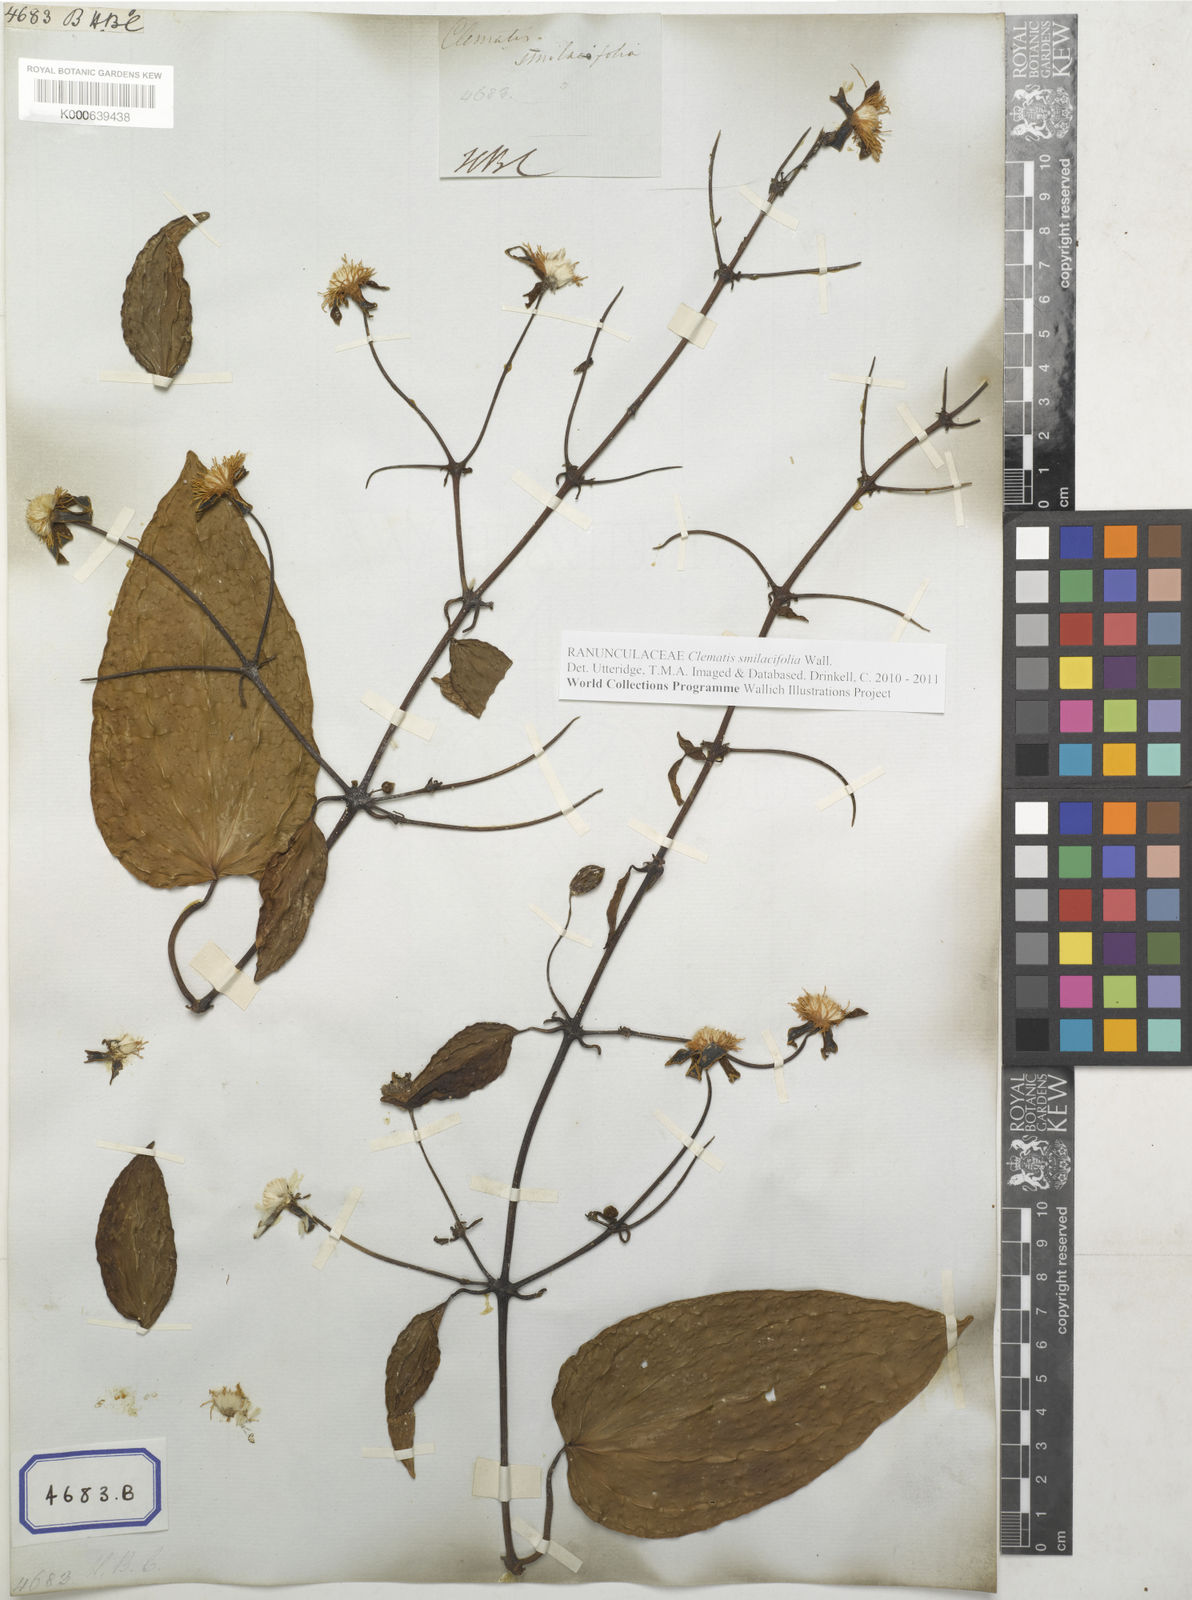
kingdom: Plantae
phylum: Tracheophyta
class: Magnoliopsida
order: Ranunculales
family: Ranunculaceae
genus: Clematis
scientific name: Clematis smilacifolia
